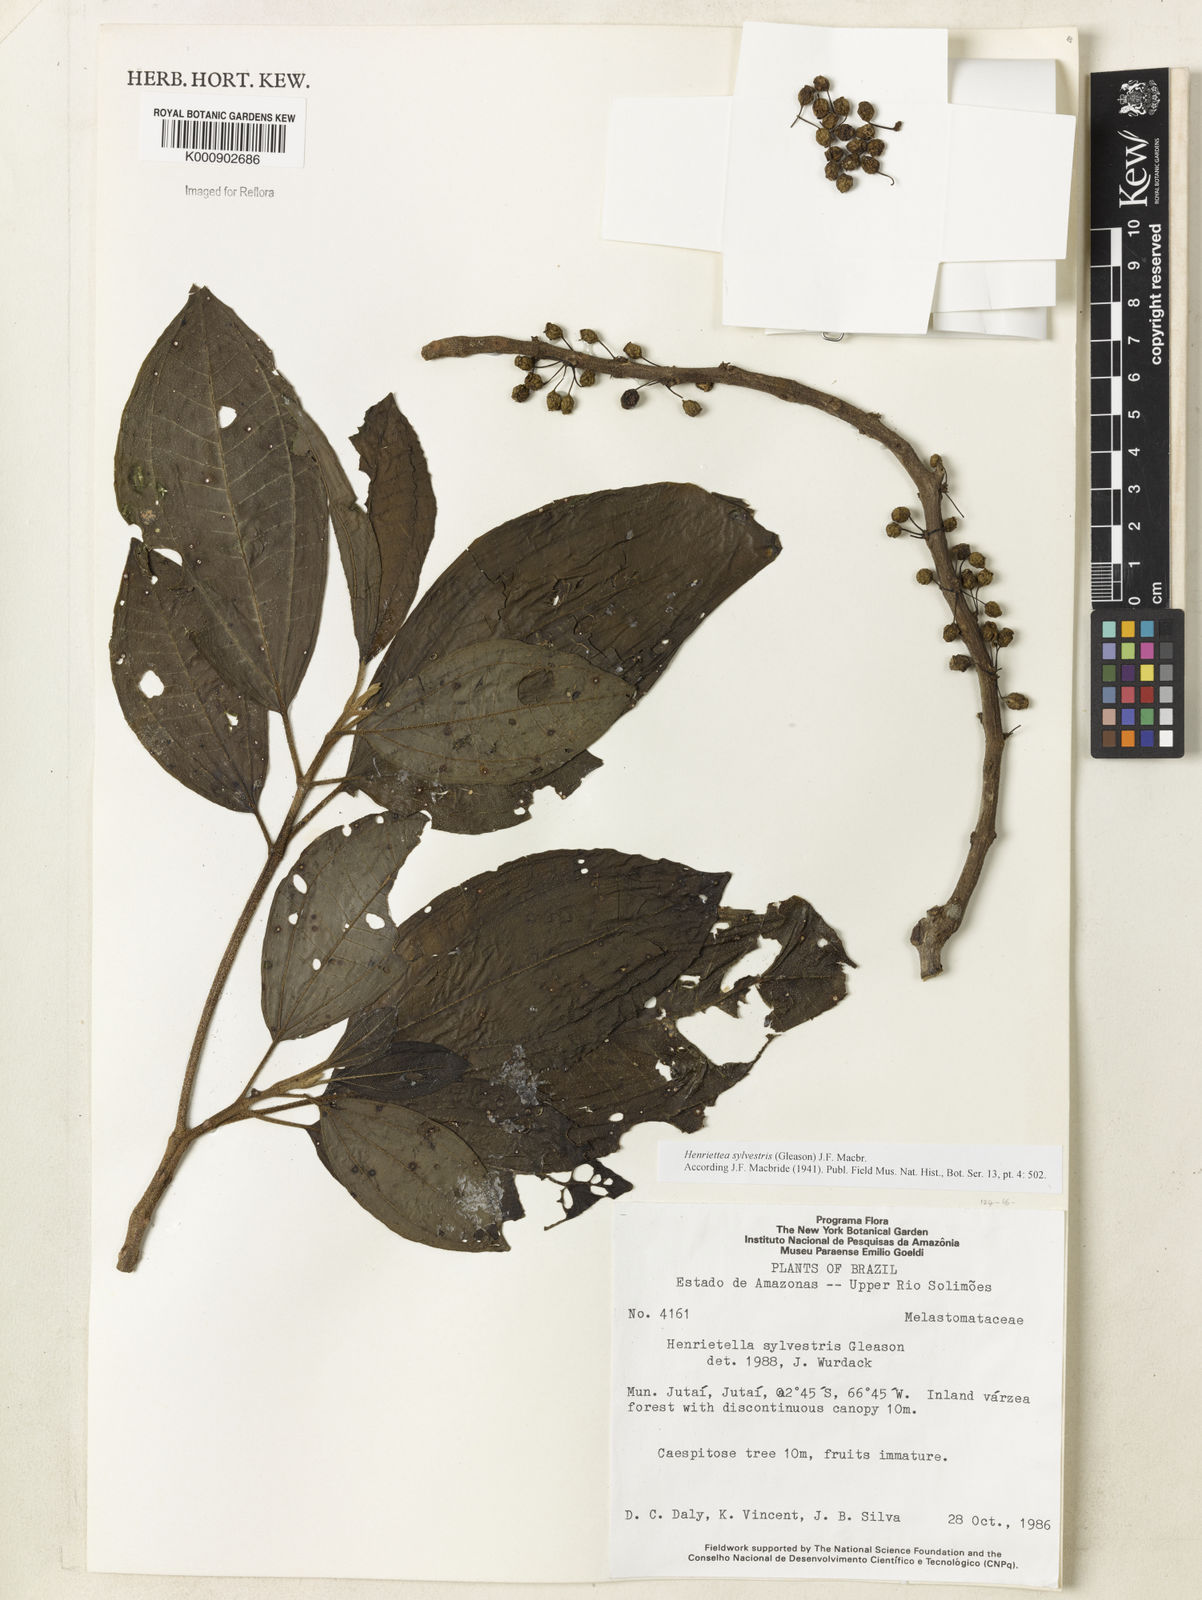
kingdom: Plantae
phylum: Tracheophyta
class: Magnoliopsida
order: Myrtales
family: Melastomataceae
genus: Henriettea
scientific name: Henriettea sylvestris
